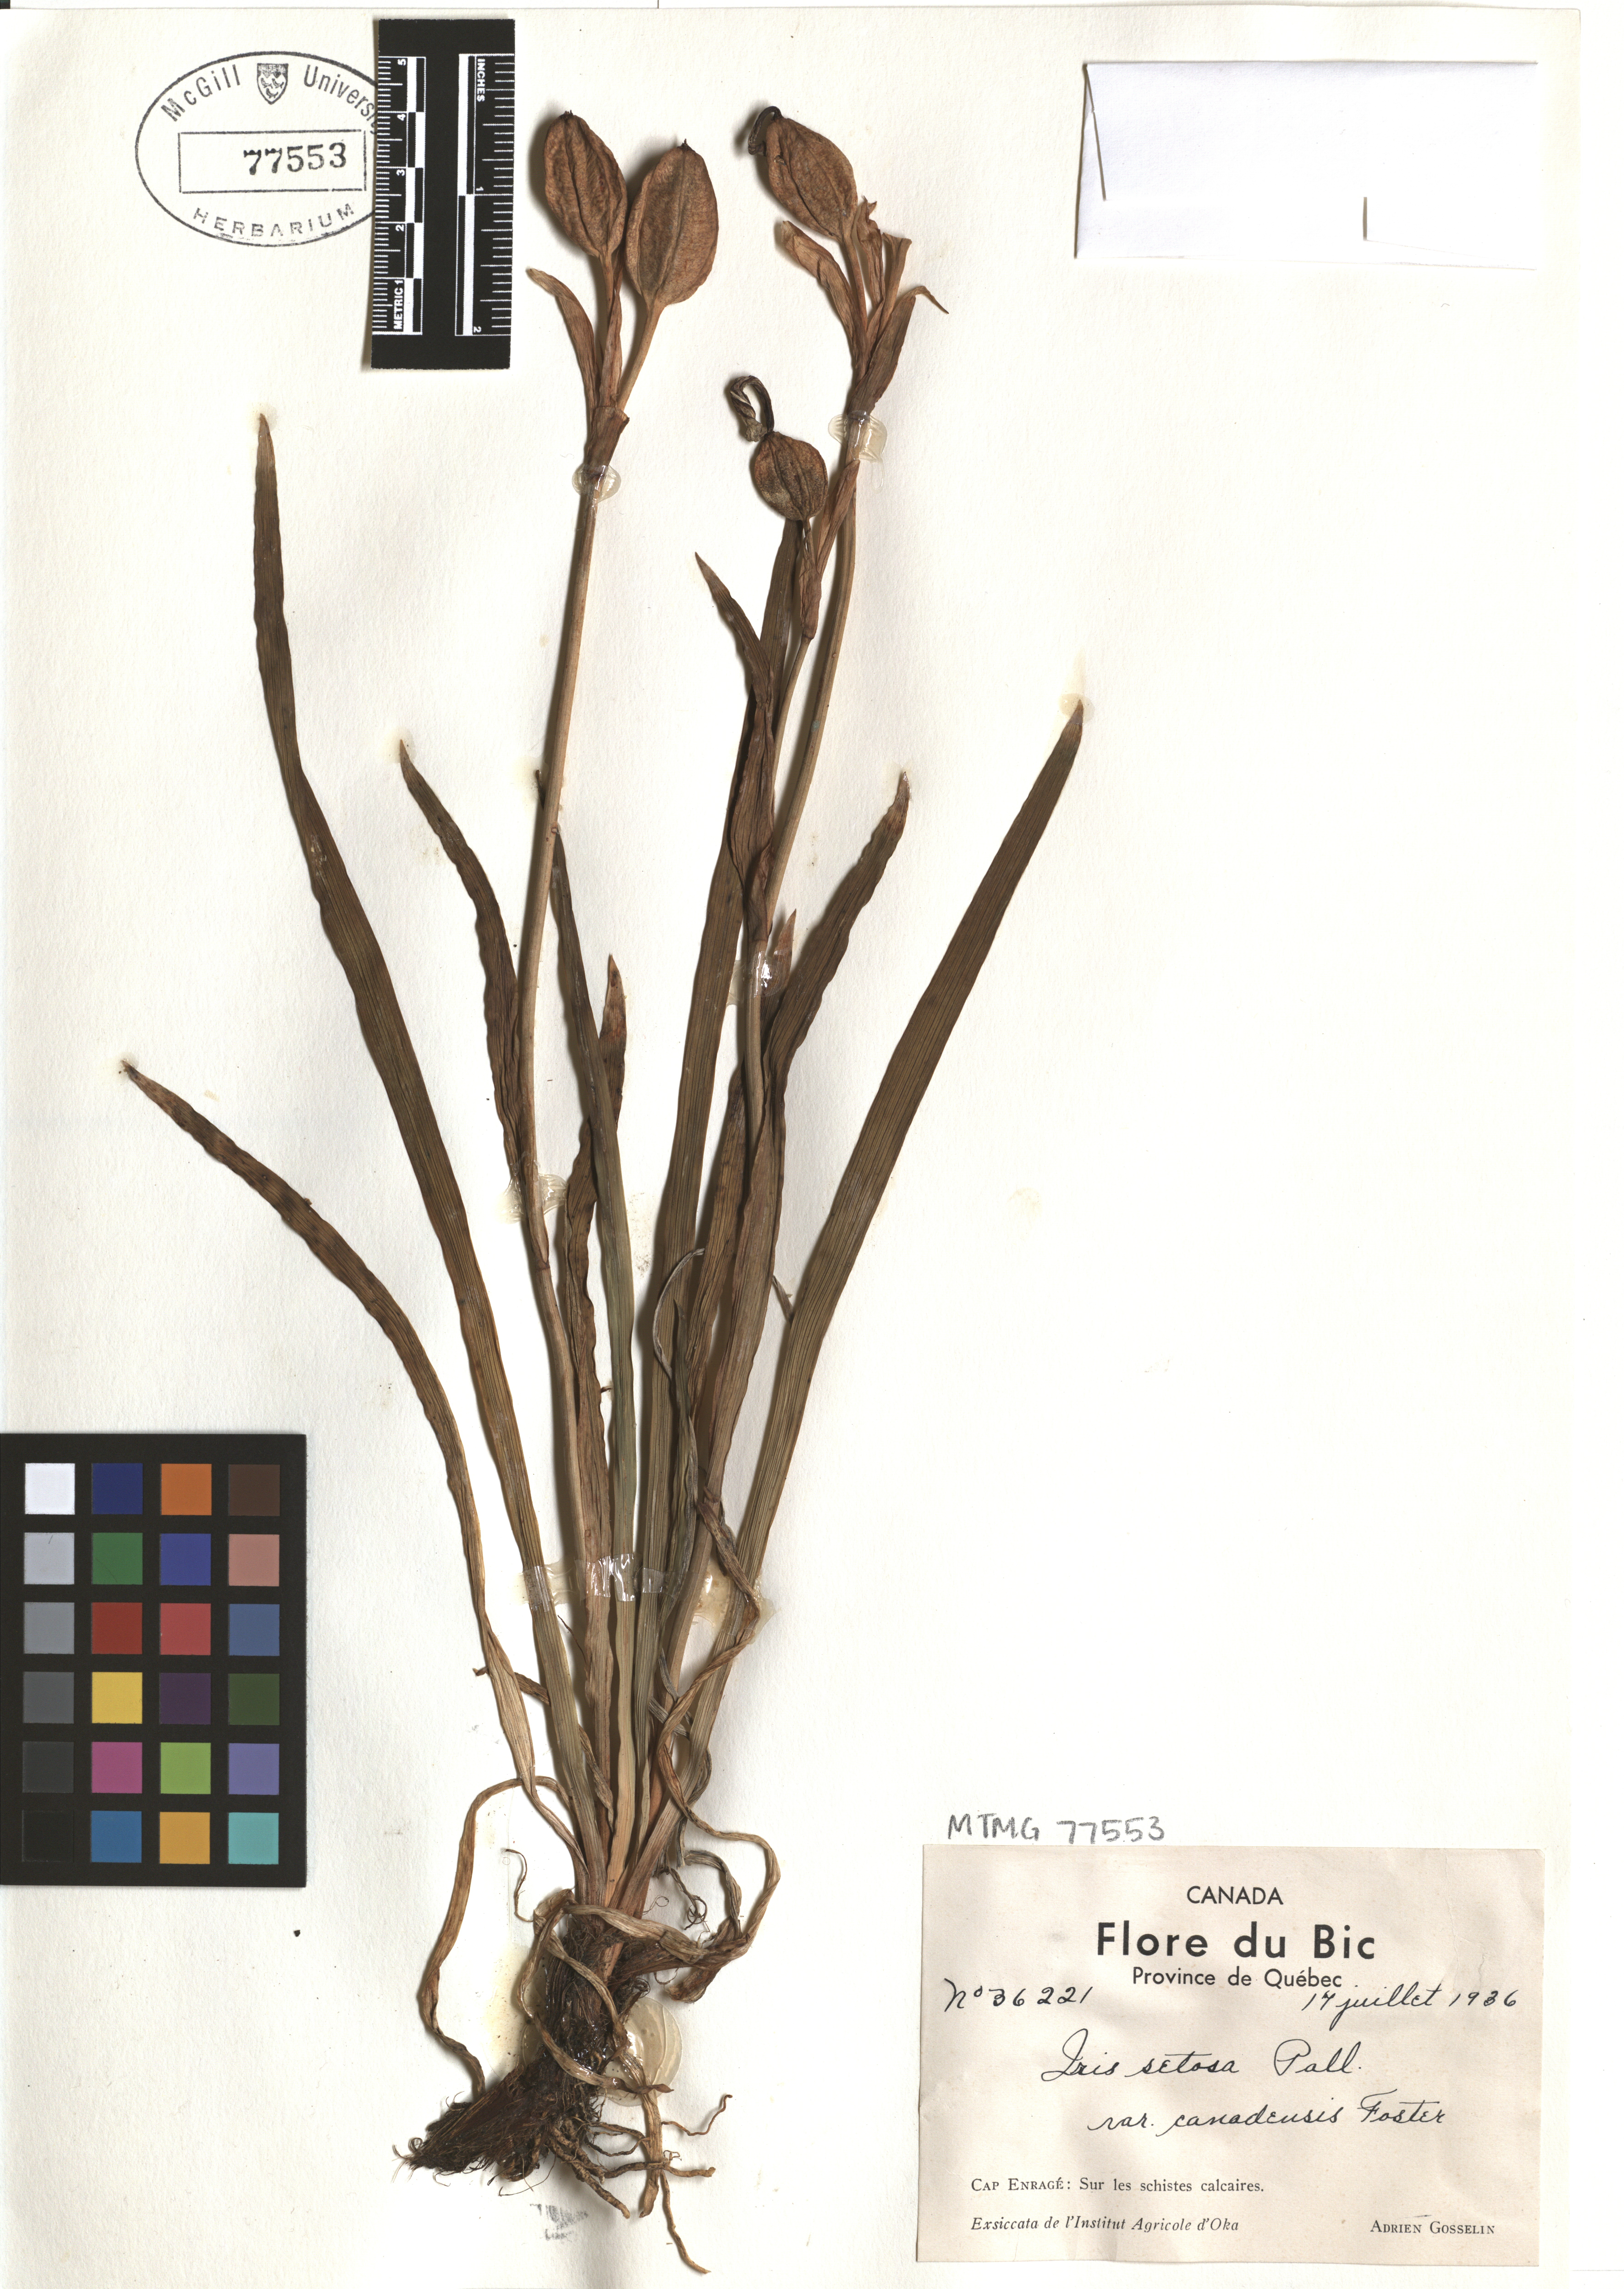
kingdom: Plantae
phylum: Tracheophyta
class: Liliopsida
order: Asparagales
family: Iridaceae
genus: Iris
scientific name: Iris hookeri
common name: Canada beach-head iris
